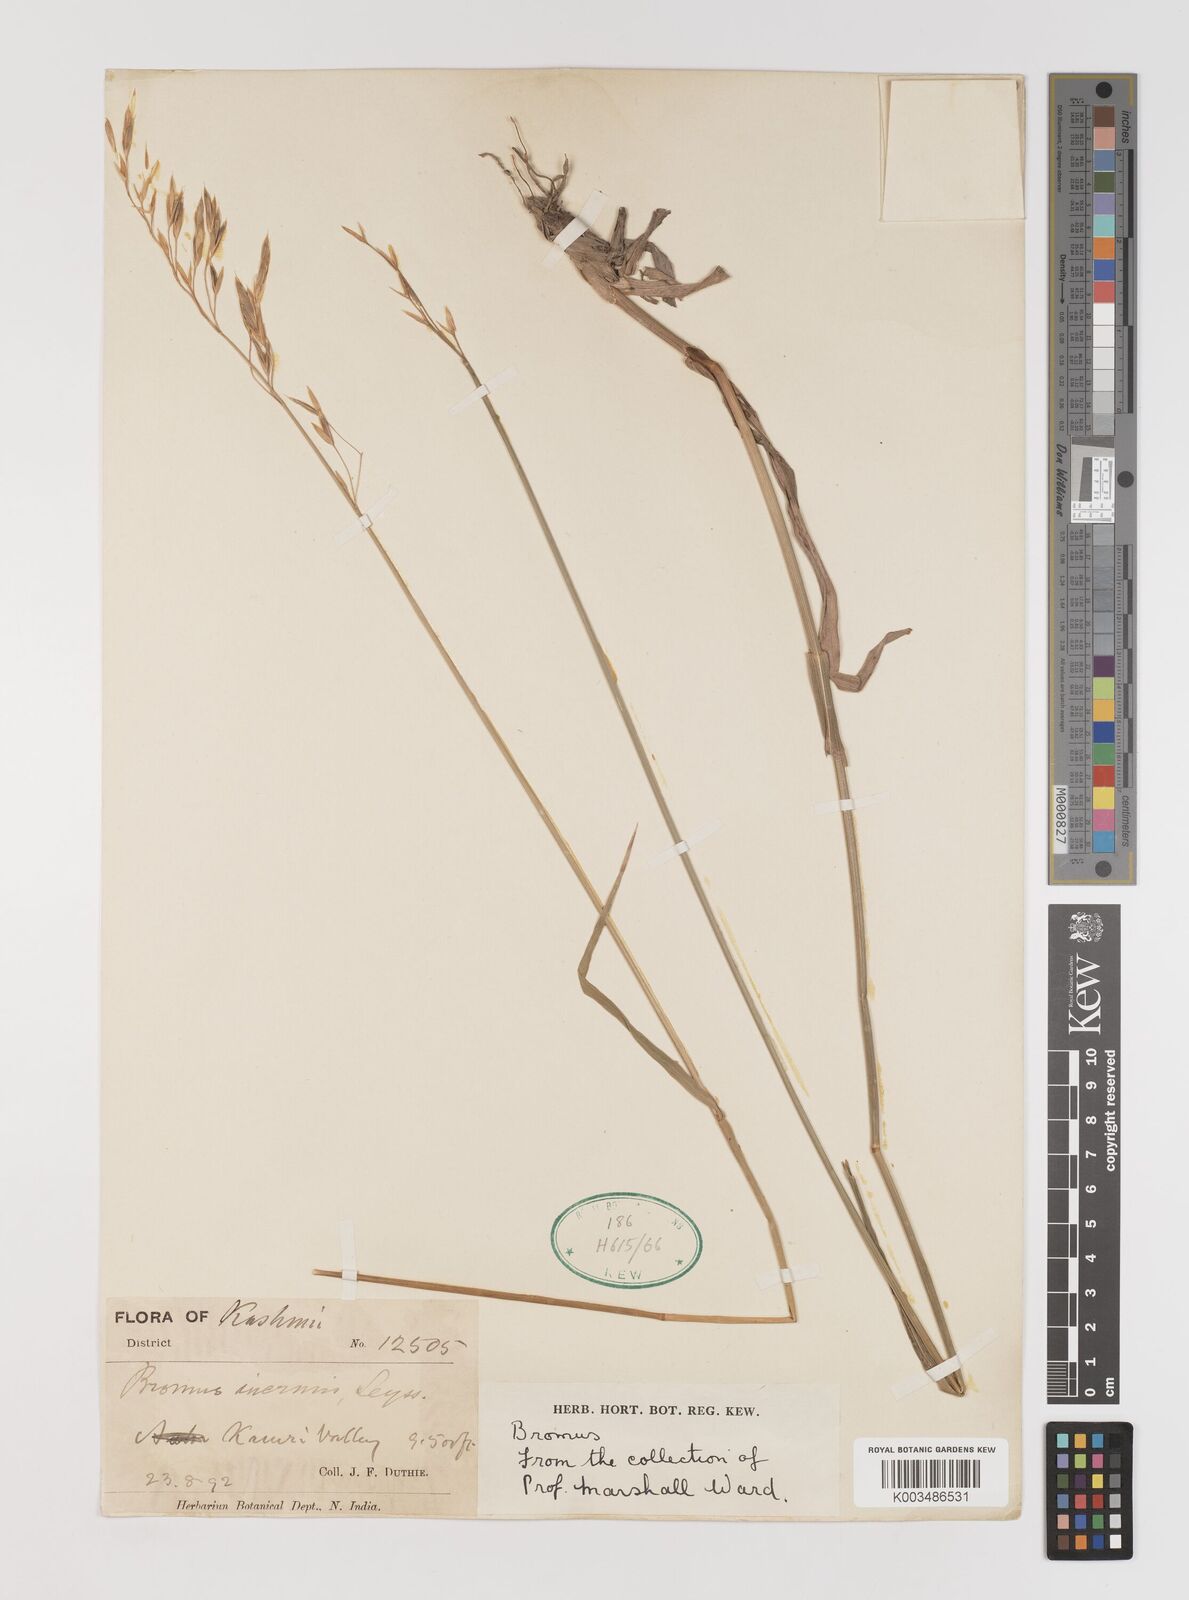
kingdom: Plantae
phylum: Tracheophyta
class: Liliopsida
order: Poales
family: Poaceae
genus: Bromus
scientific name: Bromus inermis
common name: Smooth brome
